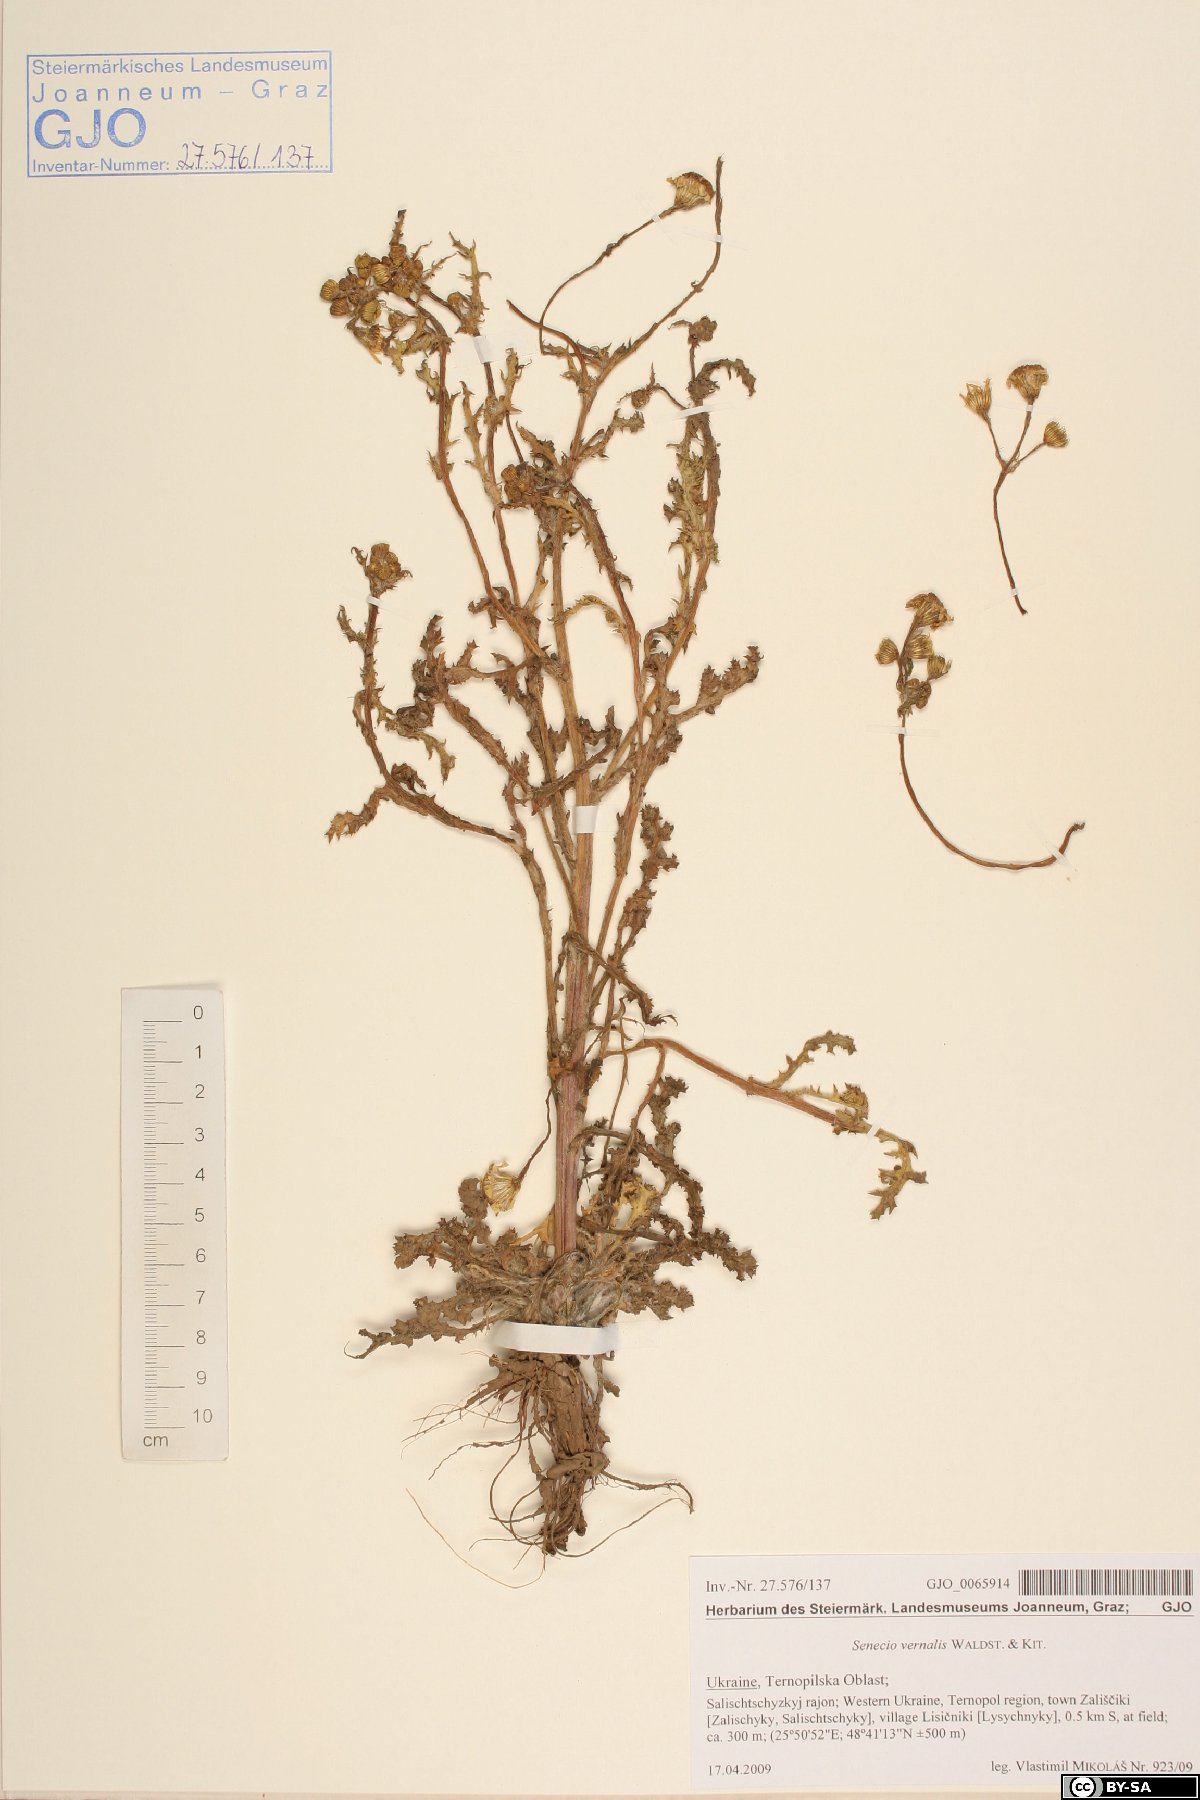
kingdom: Plantae
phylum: Tracheophyta
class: Magnoliopsida
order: Asterales
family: Asteraceae
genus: Senecio
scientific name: Senecio vernalis
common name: Eastern groundsel
